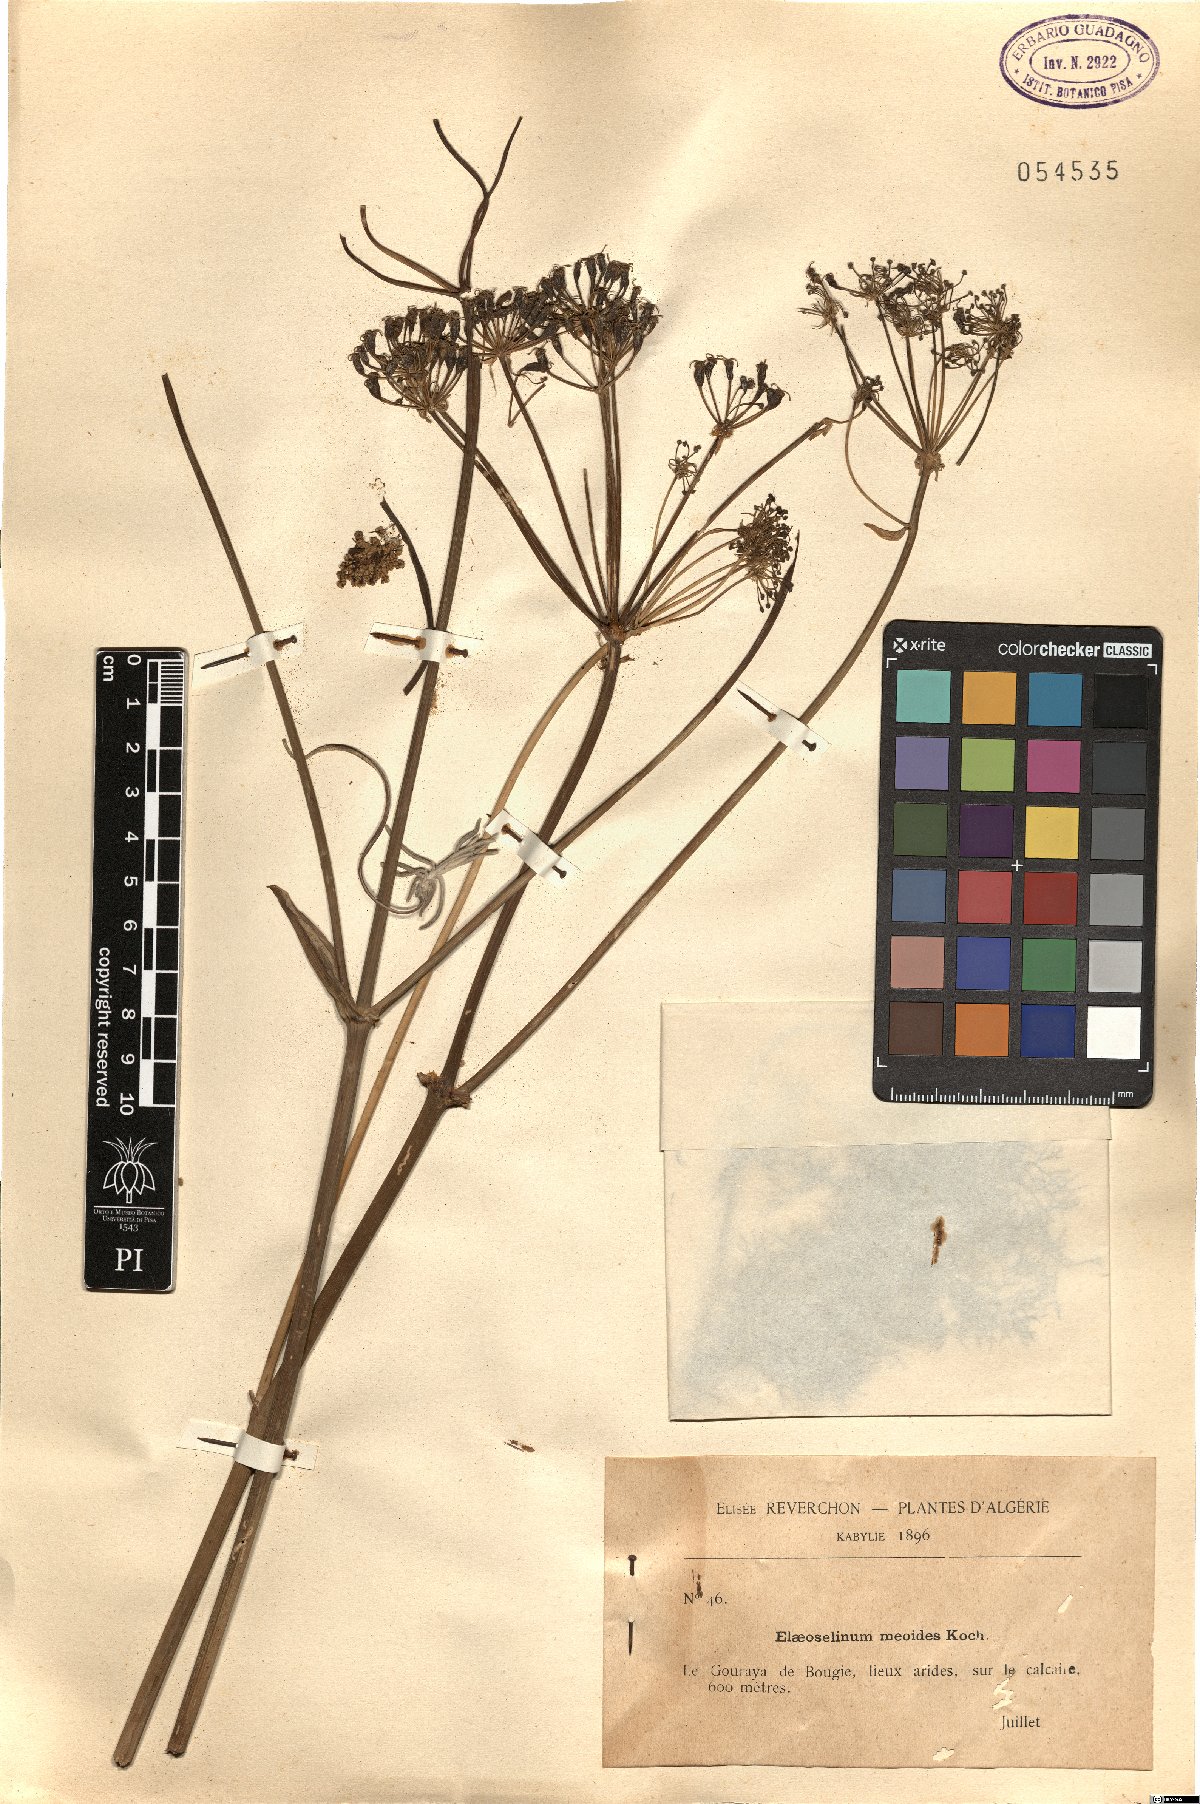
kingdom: Plantae
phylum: Tracheophyta
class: Magnoliopsida
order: Apiales
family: Apiaceae
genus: Thapsia
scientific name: Thapsia meoides
